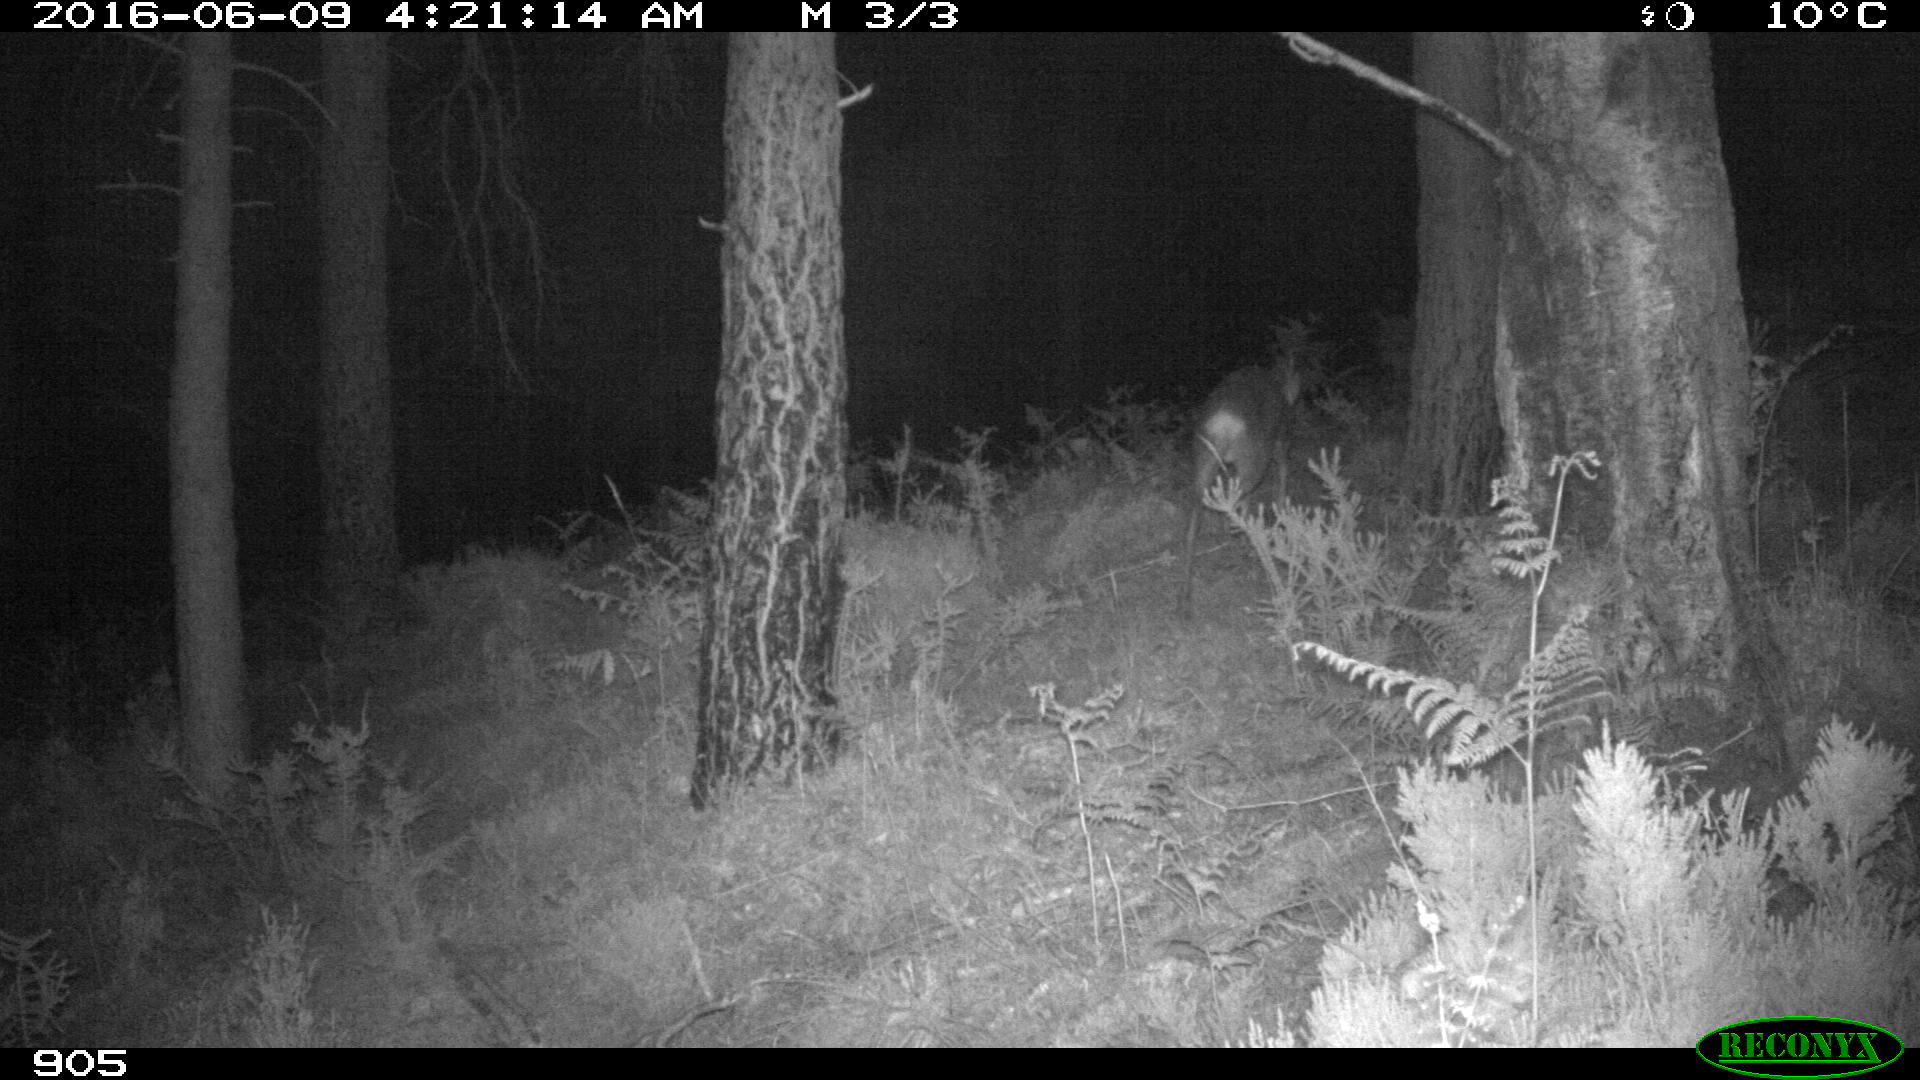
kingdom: Animalia
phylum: Chordata
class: Mammalia
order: Artiodactyla
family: Cervidae
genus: Capreolus
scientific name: Capreolus capreolus
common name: Western roe deer
